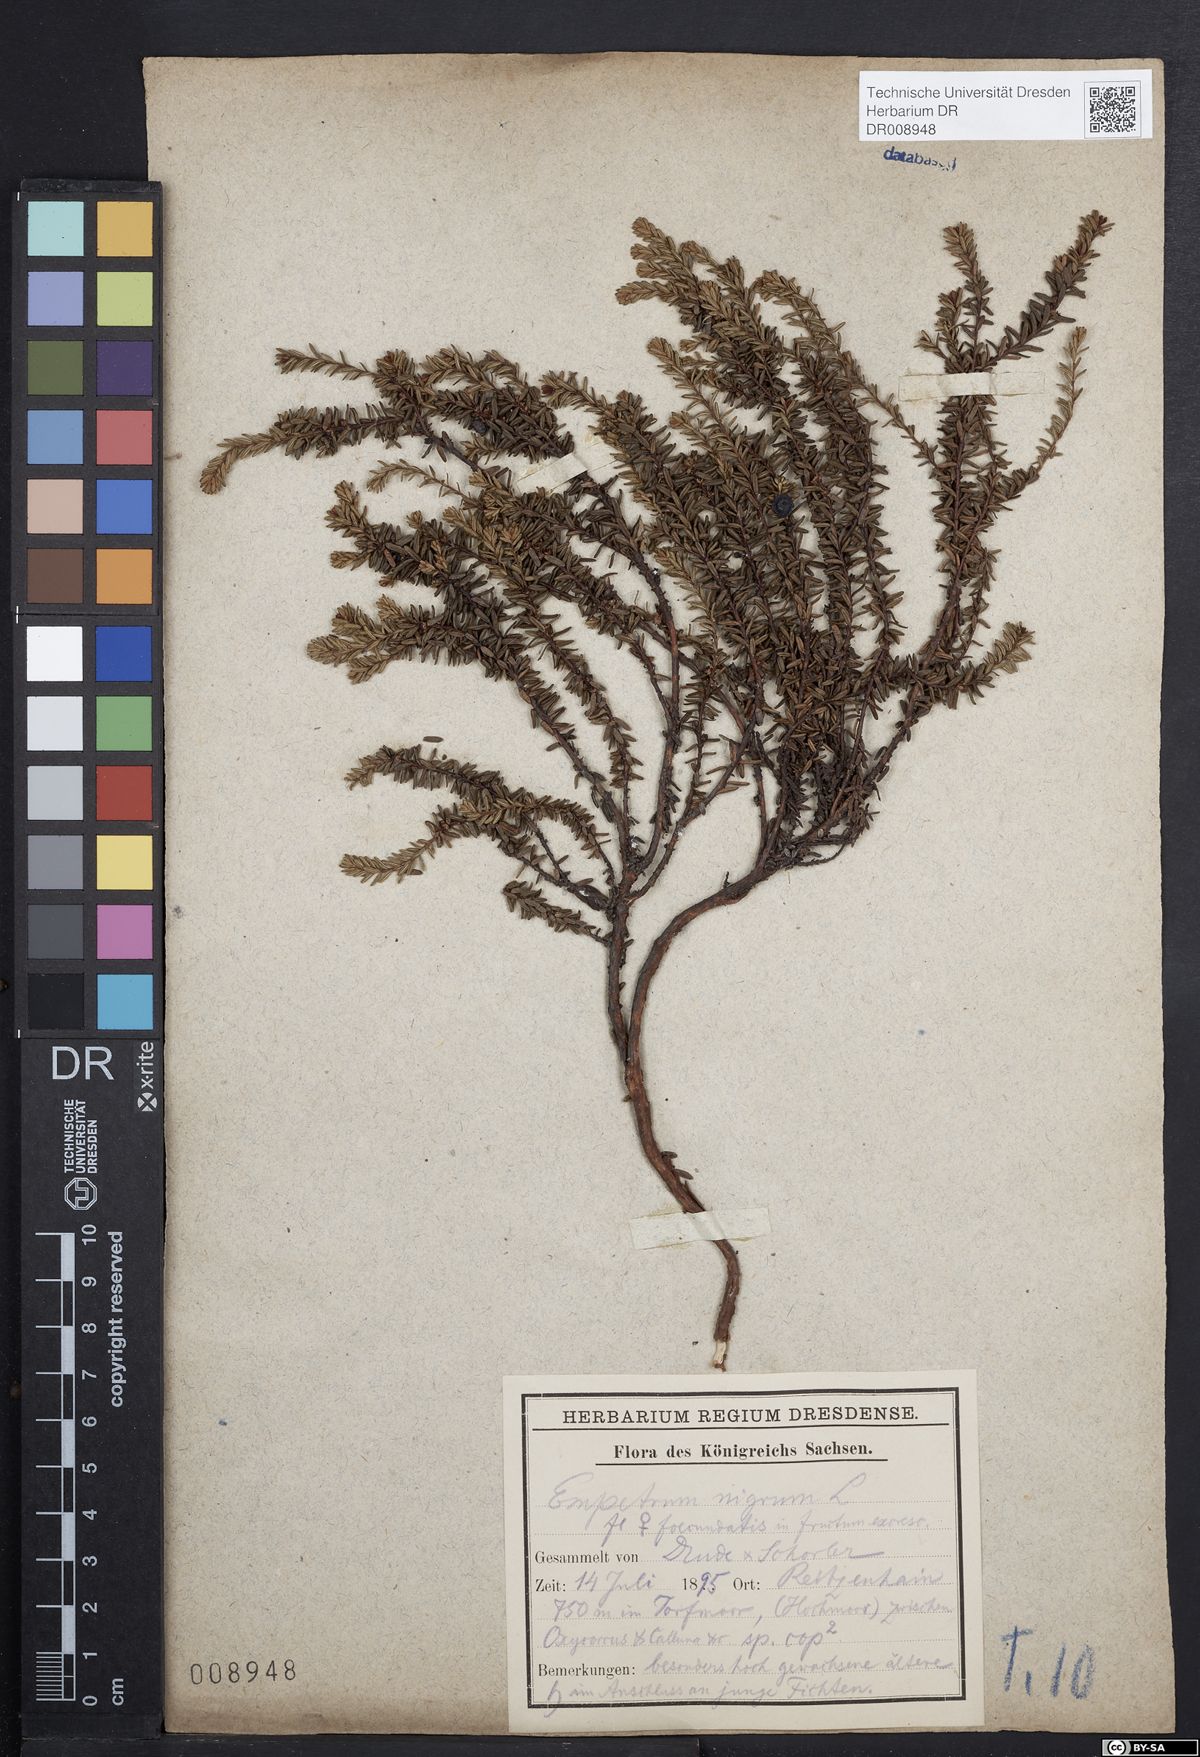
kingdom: Plantae
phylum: Tracheophyta
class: Magnoliopsida
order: Ericales
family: Ericaceae
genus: Empetrum
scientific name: Empetrum nigrum
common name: Black crowberry
